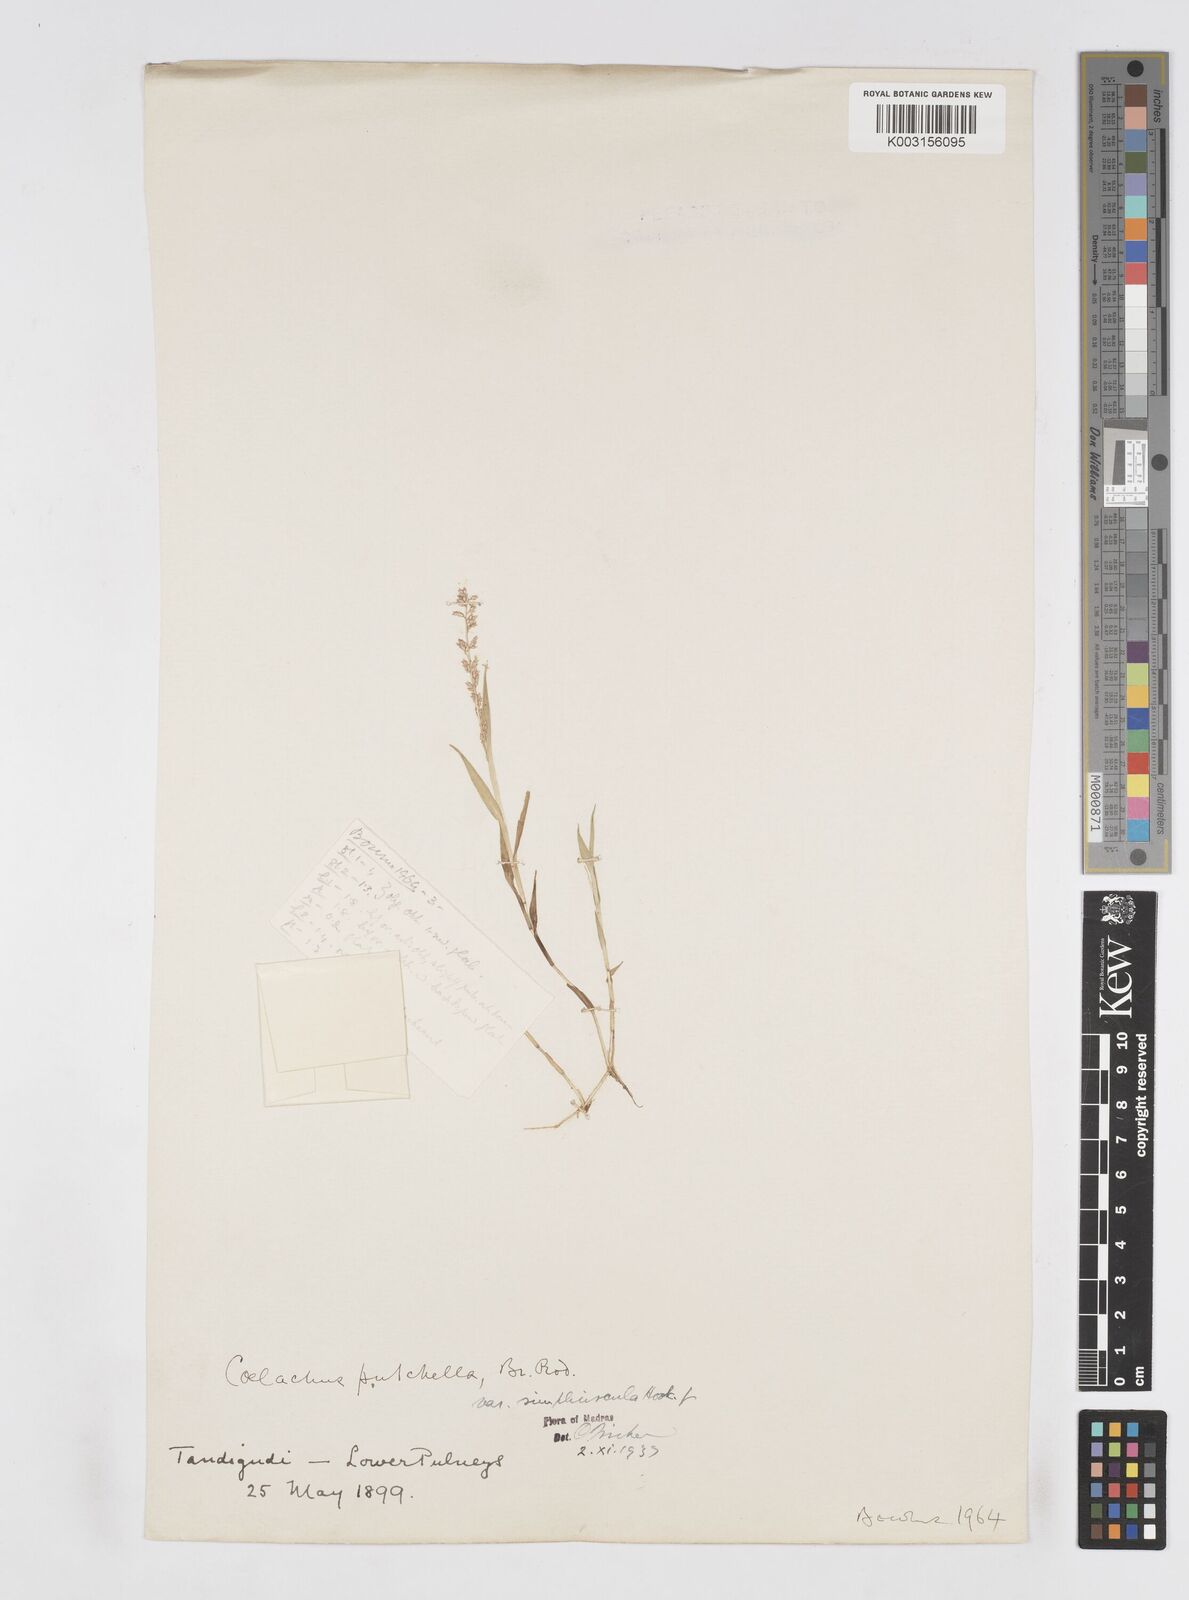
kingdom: Plantae
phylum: Tracheophyta
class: Liliopsida
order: Poales
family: Poaceae
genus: Coelachne
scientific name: Coelachne simpliciuscula
